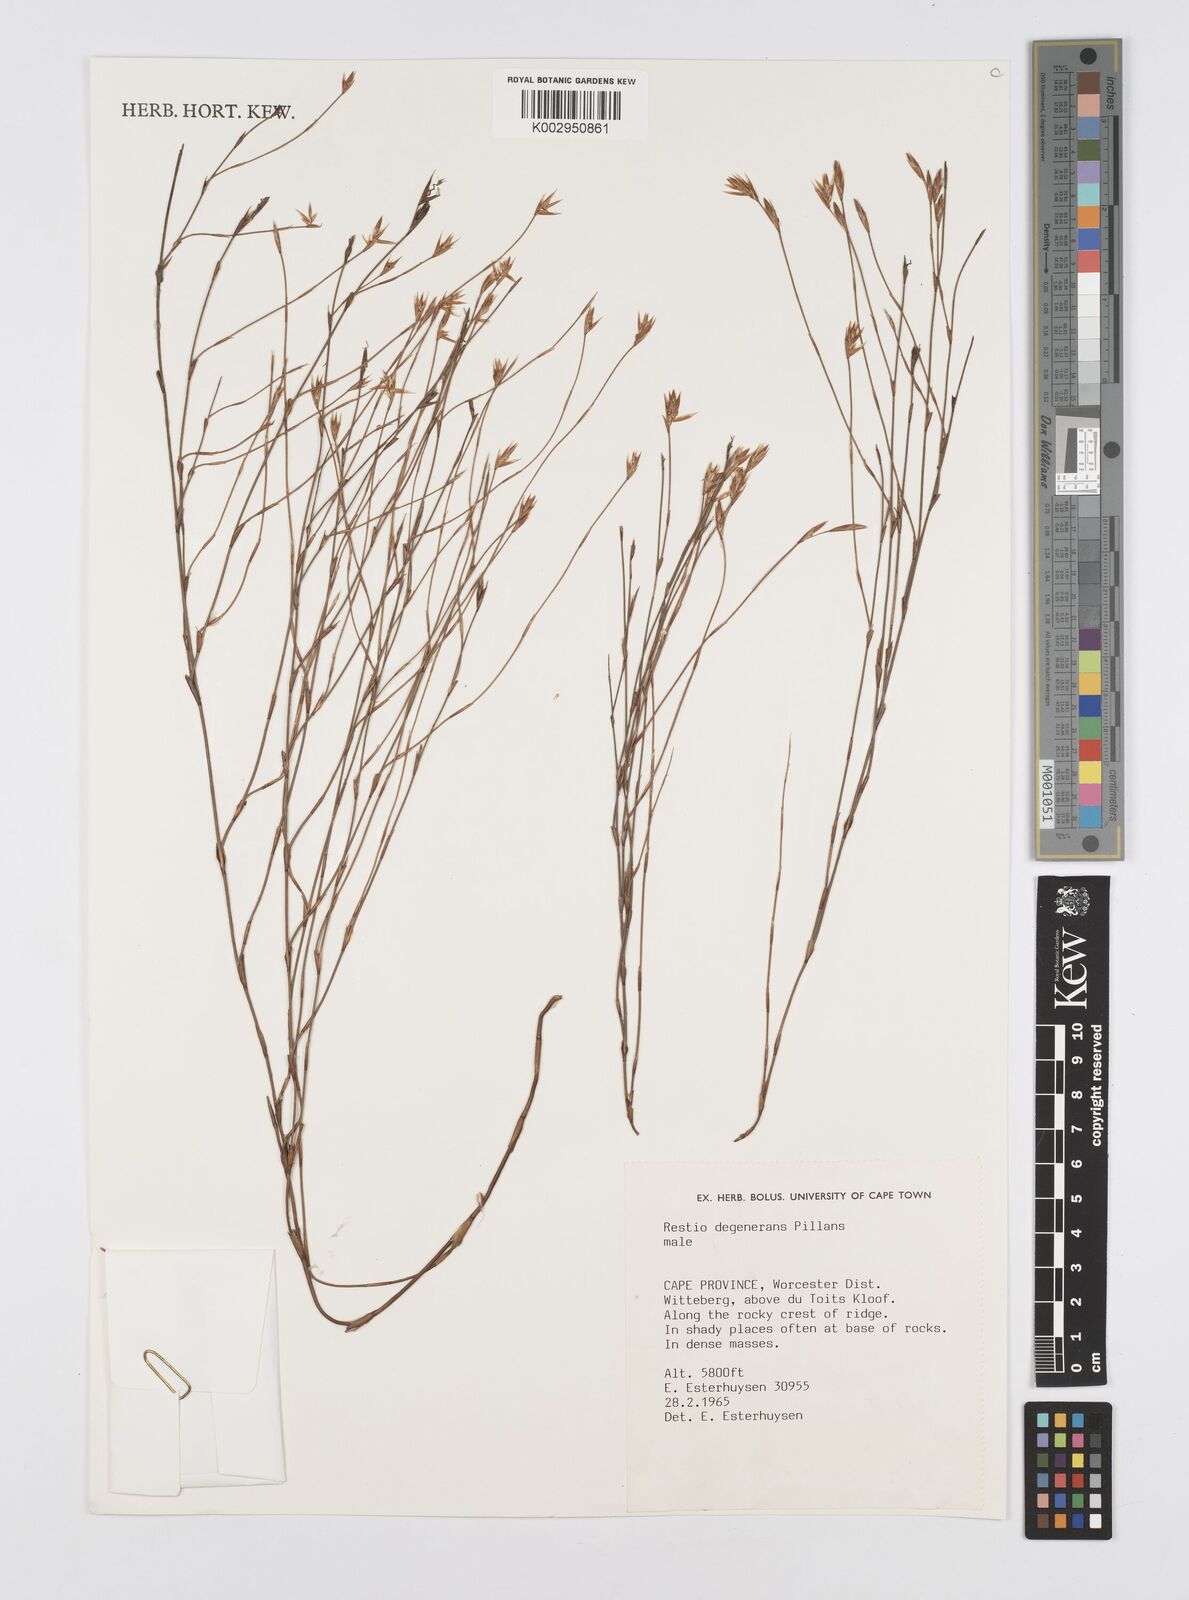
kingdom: Plantae
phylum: Tracheophyta
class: Liliopsida
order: Poales
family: Restionaceae
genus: Restio
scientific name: Restio degenerans
